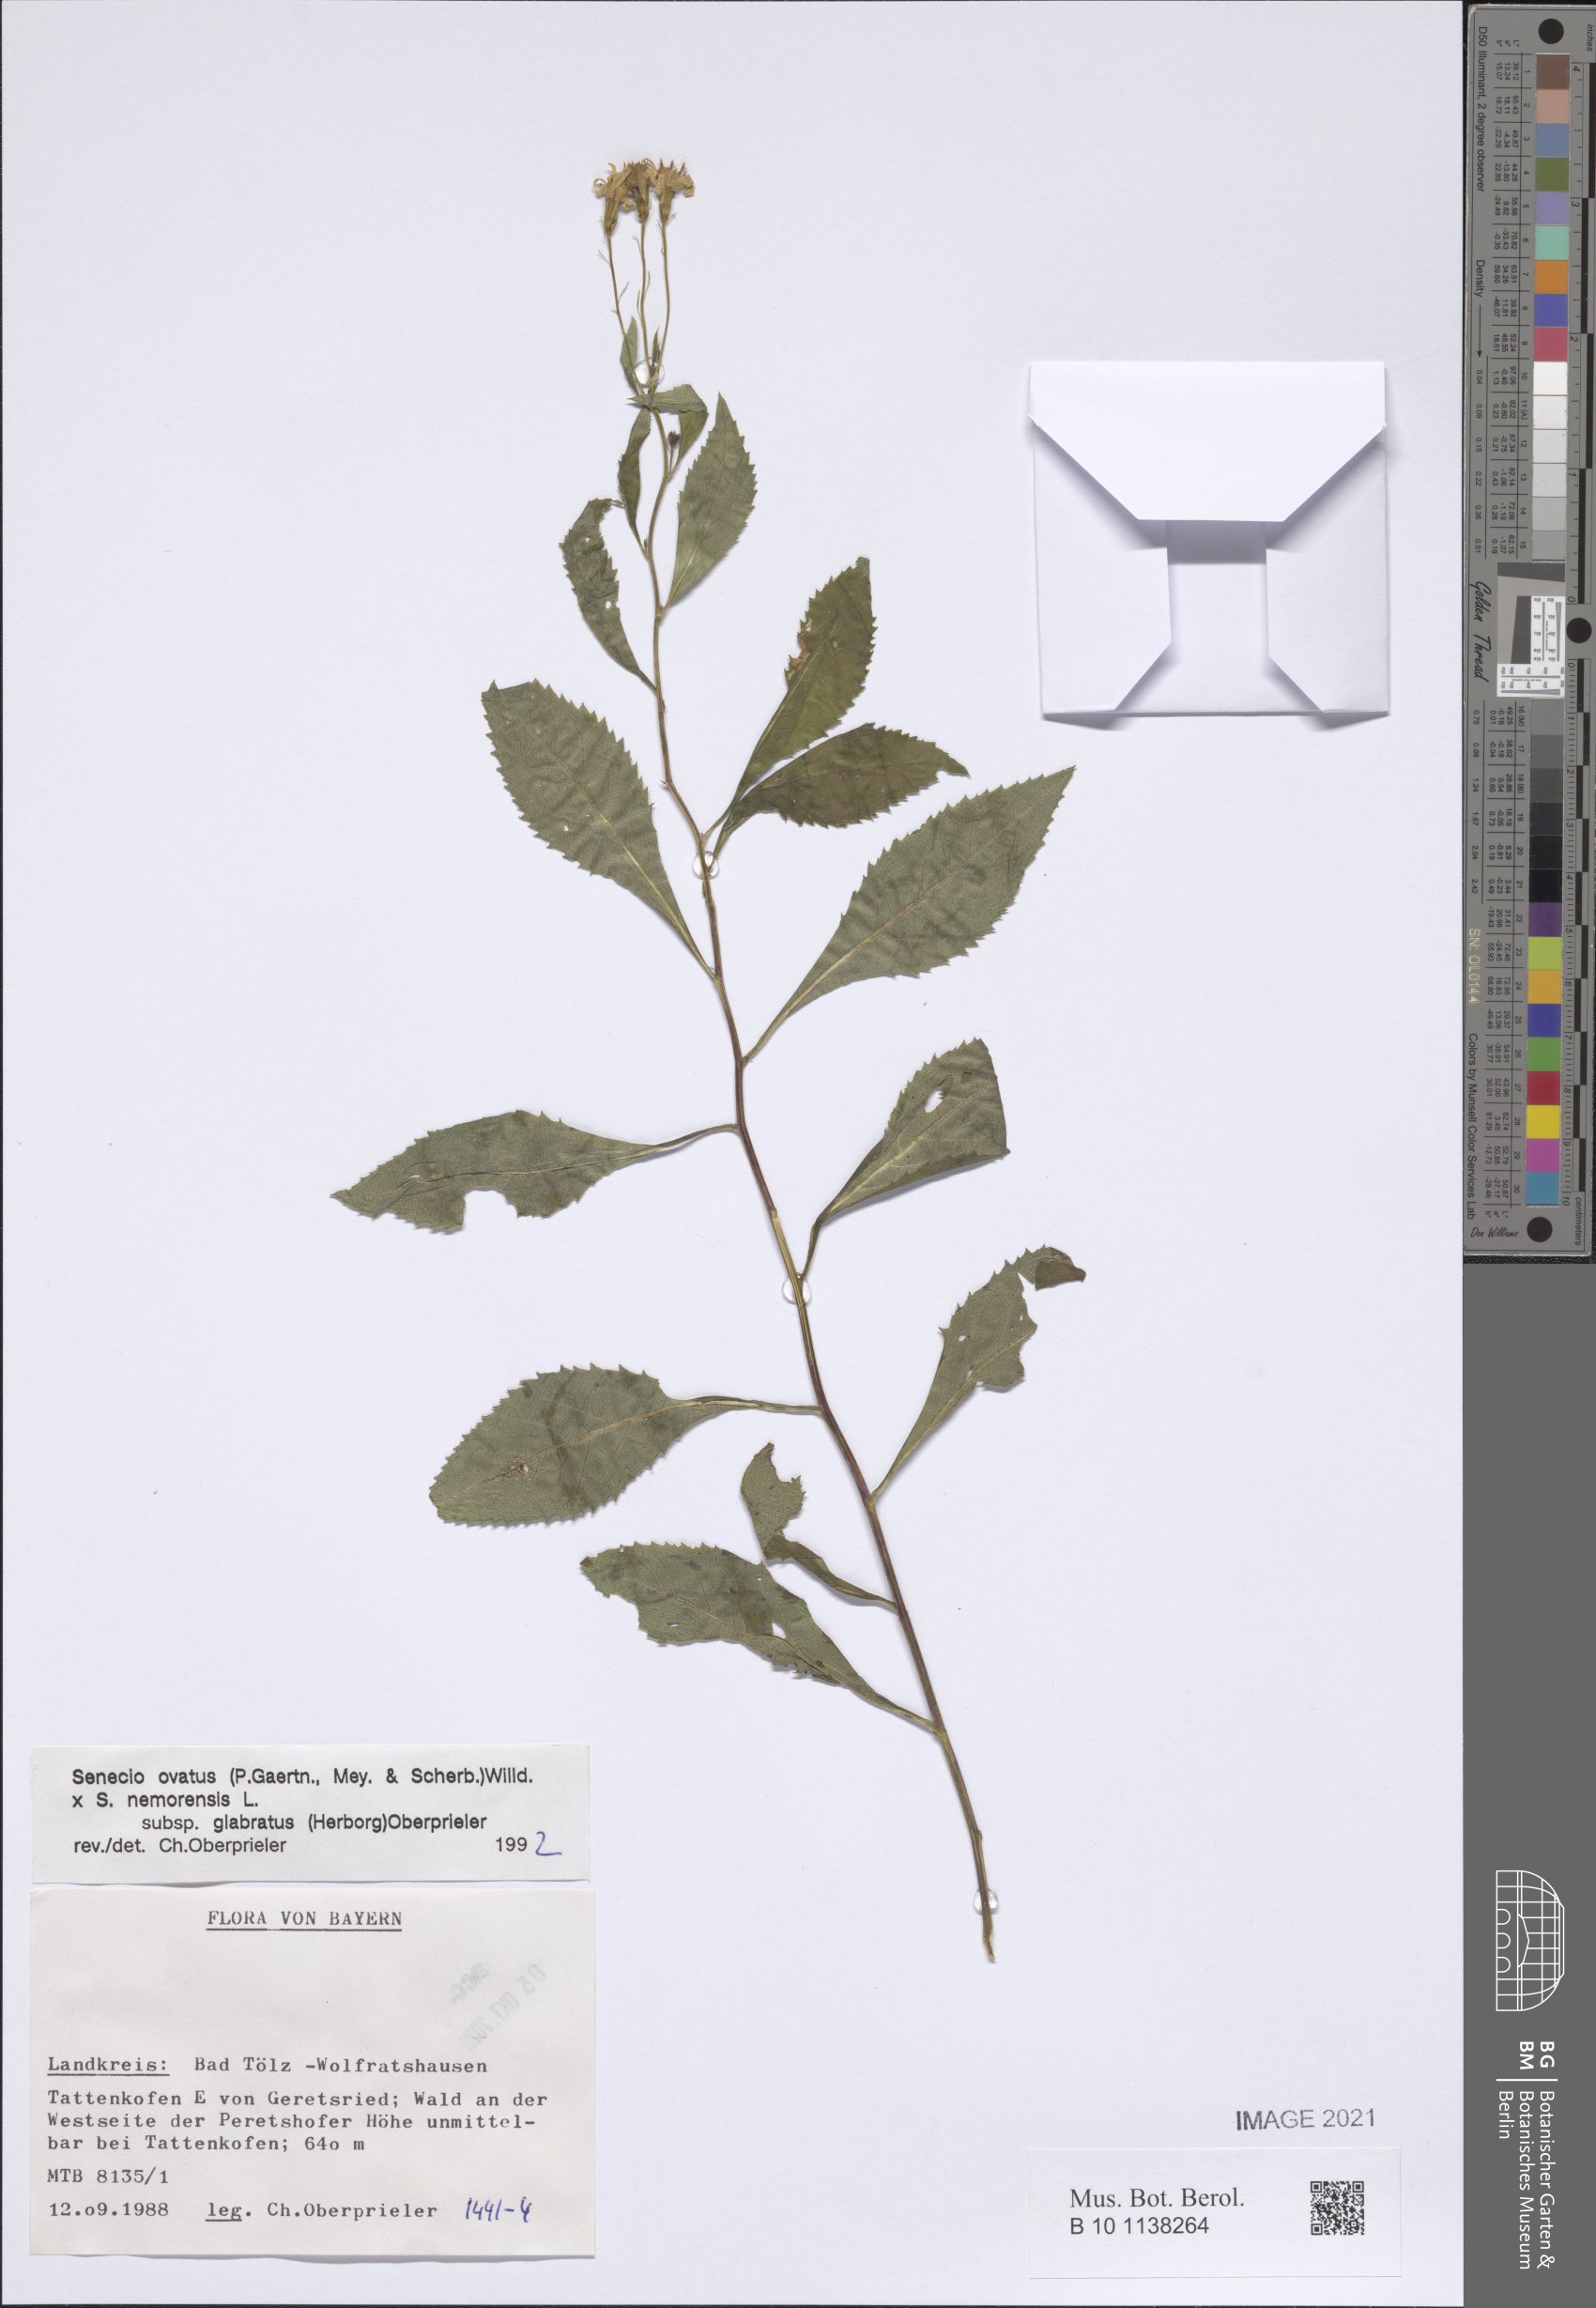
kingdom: Plantae
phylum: Tracheophyta
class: Magnoliopsida
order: Asterales
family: Asteraceae
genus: Senecio
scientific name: Senecio ovatus
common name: Wood ragwort
